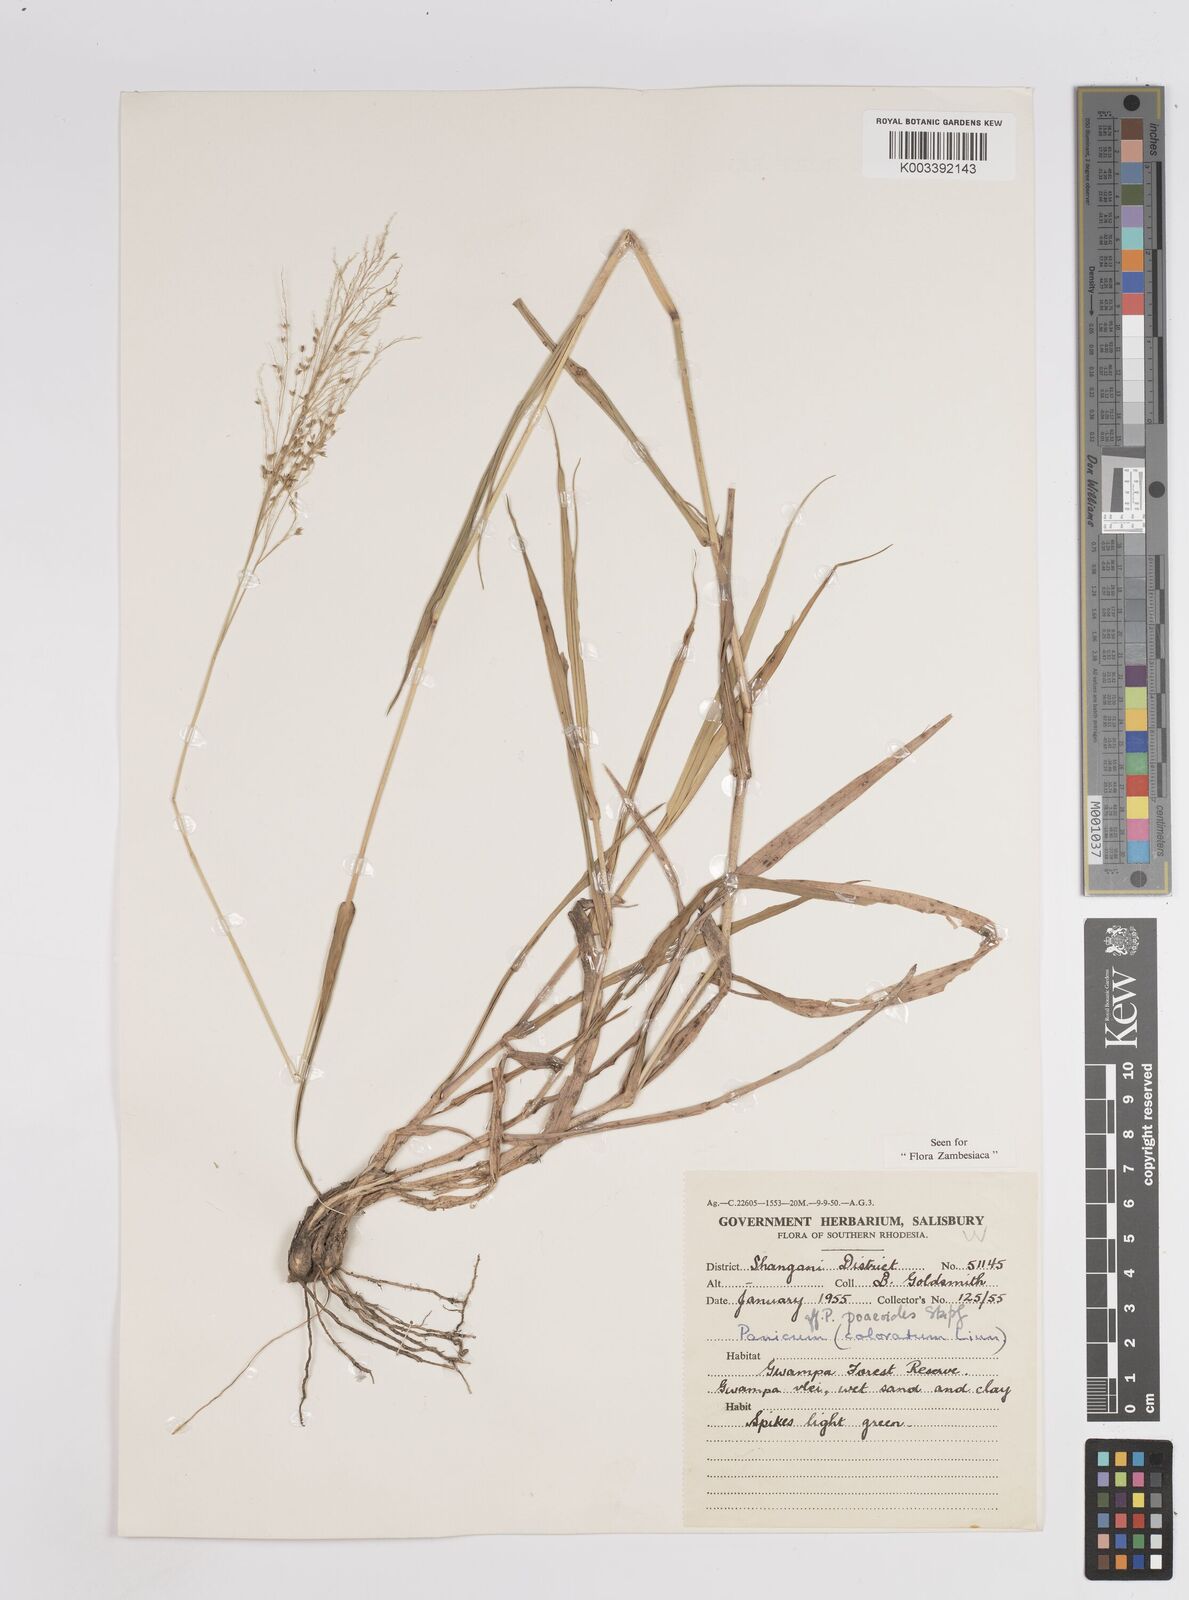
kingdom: Plantae
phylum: Tracheophyta
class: Liliopsida
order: Poales
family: Poaceae
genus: Panicum
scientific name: Panicum
